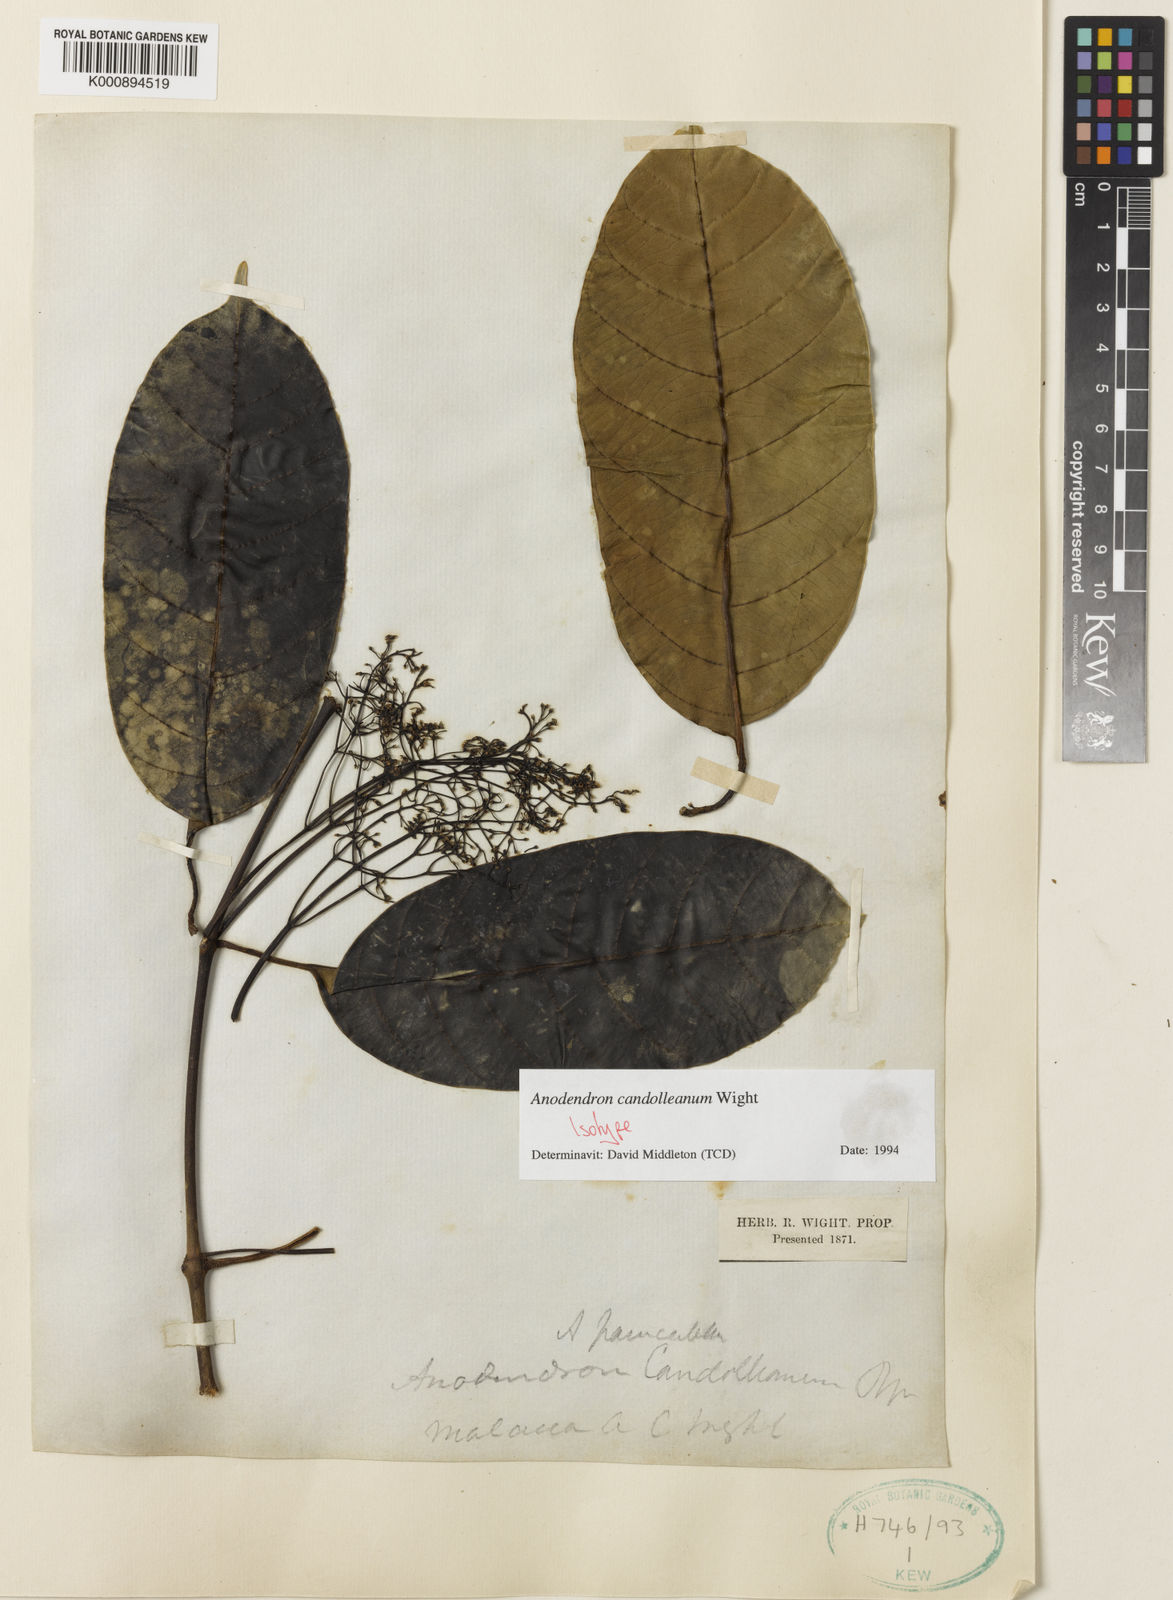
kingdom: Plantae
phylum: Tracheophyta
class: Magnoliopsida
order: Gentianales
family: Apocynaceae
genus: Anodendron
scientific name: Anodendron candolleanum
